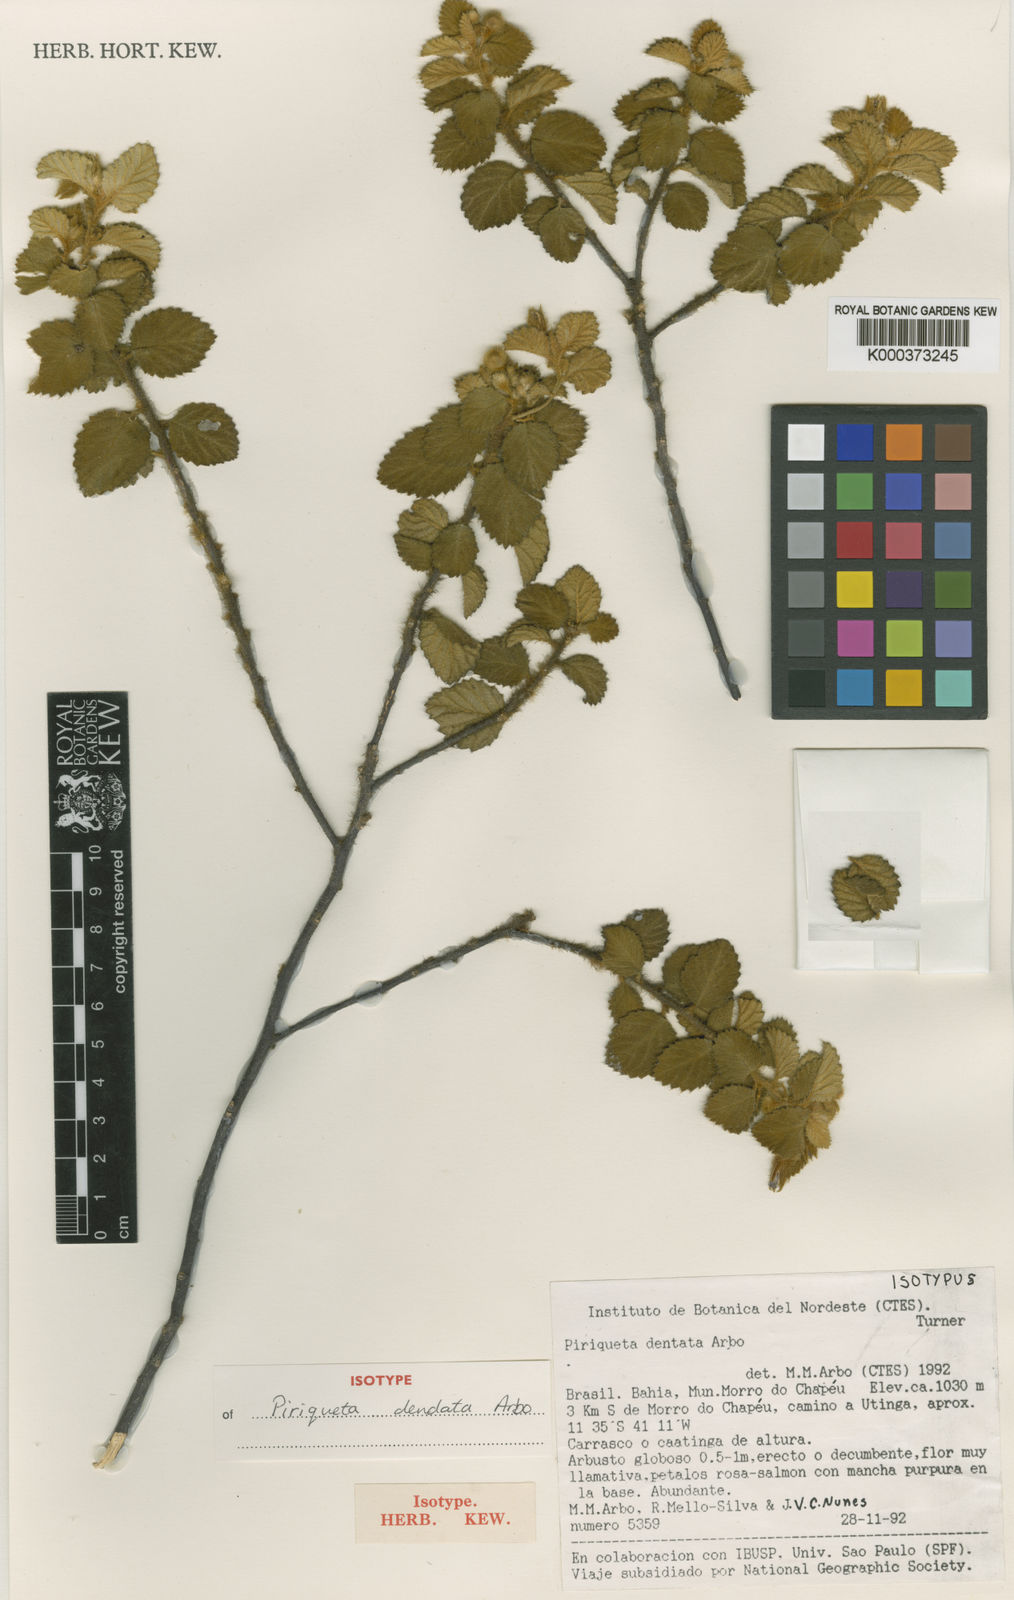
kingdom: Plantae
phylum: Tracheophyta
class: Magnoliopsida
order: Malpighiales
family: Turneraceae
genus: Piriqueta
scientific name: Piriqueta dentata
